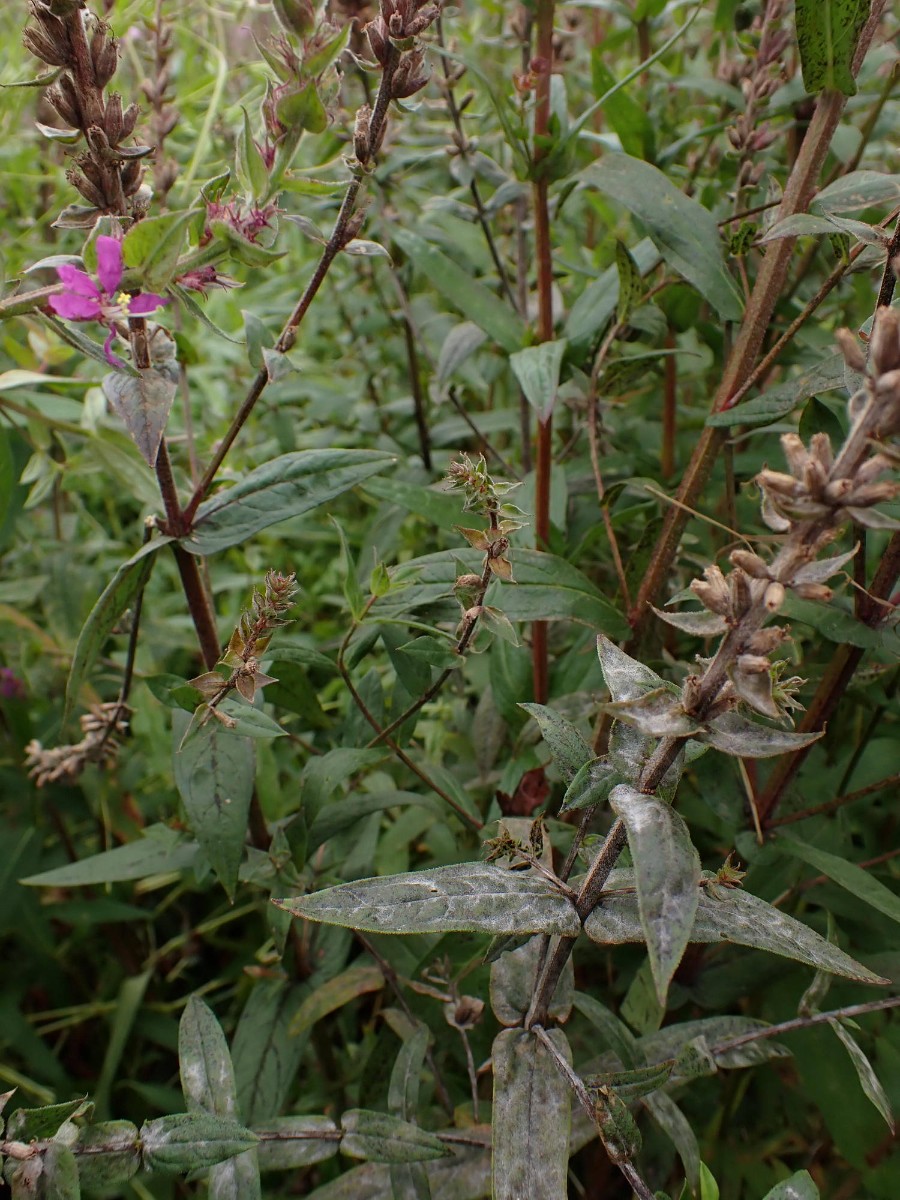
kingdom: Fungi
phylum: Ascomycota
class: Leotiomycetes
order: Helotiales
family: Erysiphaceae
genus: Erysiphe
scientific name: Erysiphe lythri
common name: kattehale-meldug
